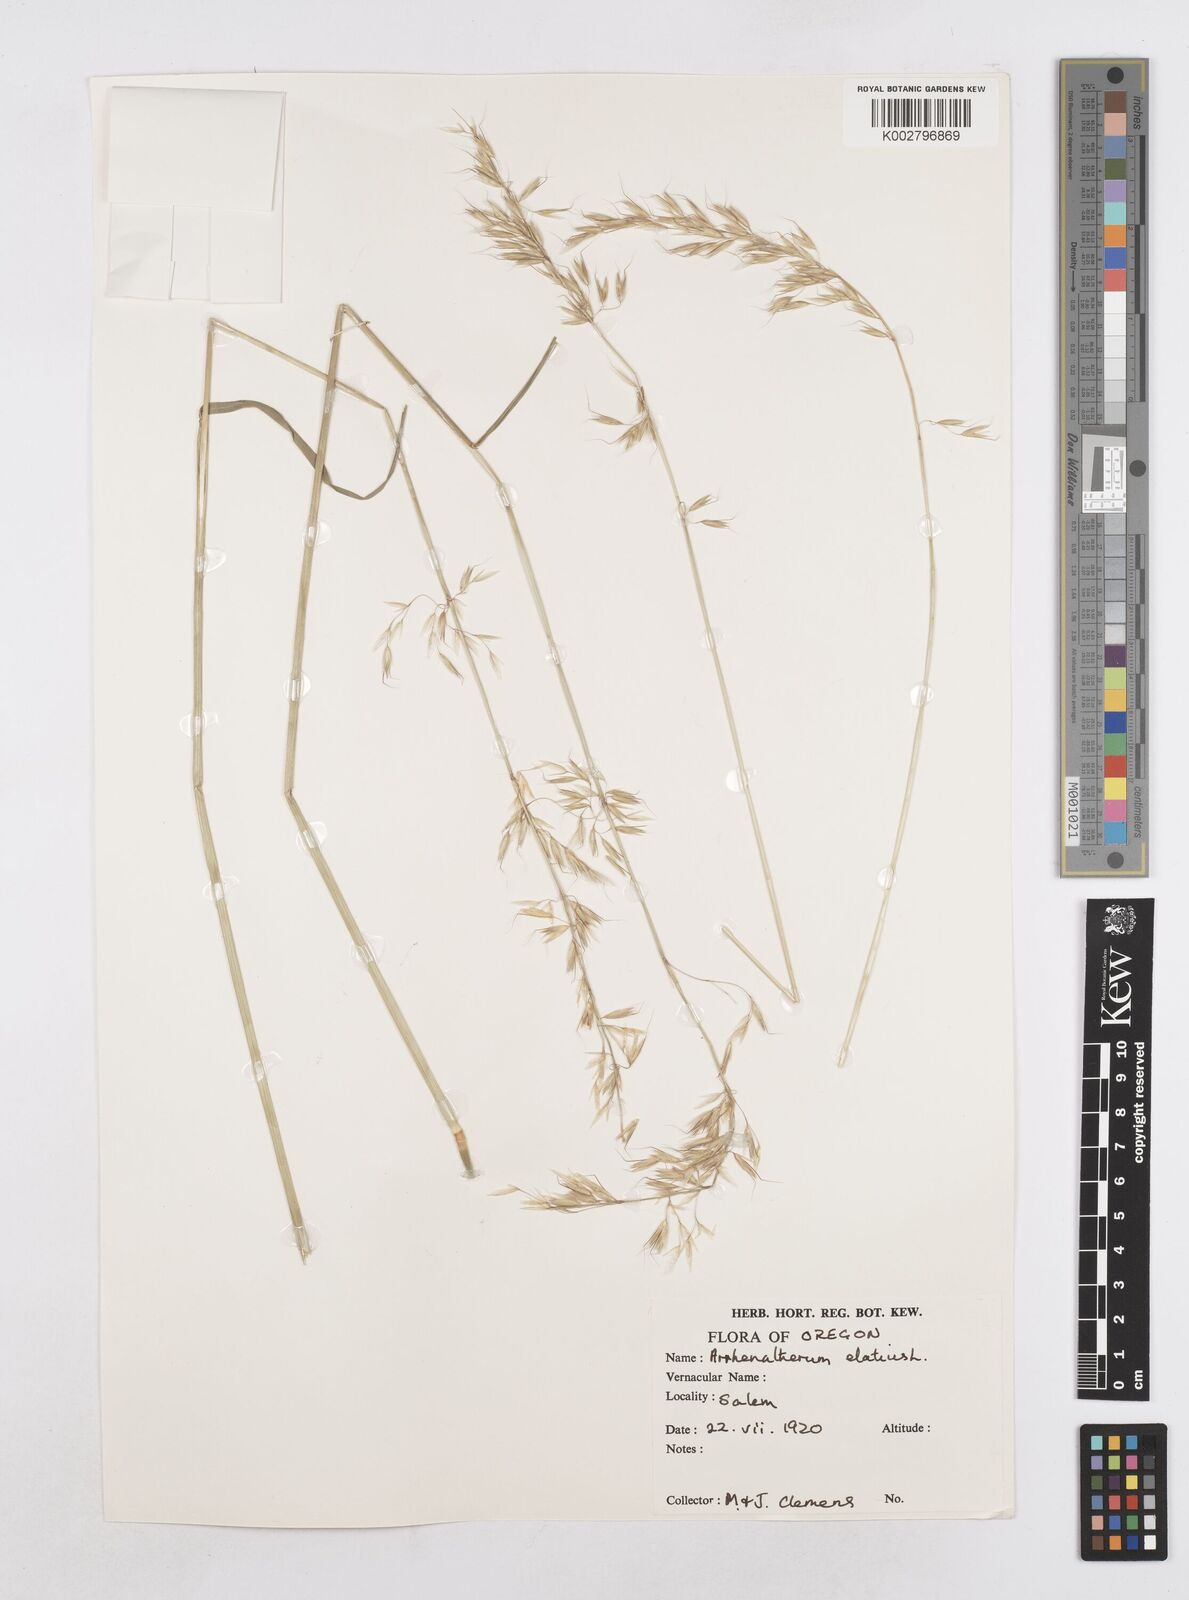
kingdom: Plantae
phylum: Tracheophyta
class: Liliopsida
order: Poales
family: Poaceae
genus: Arrhenatherum
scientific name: Arrhenatherum elatius
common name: Tall oatgrass
